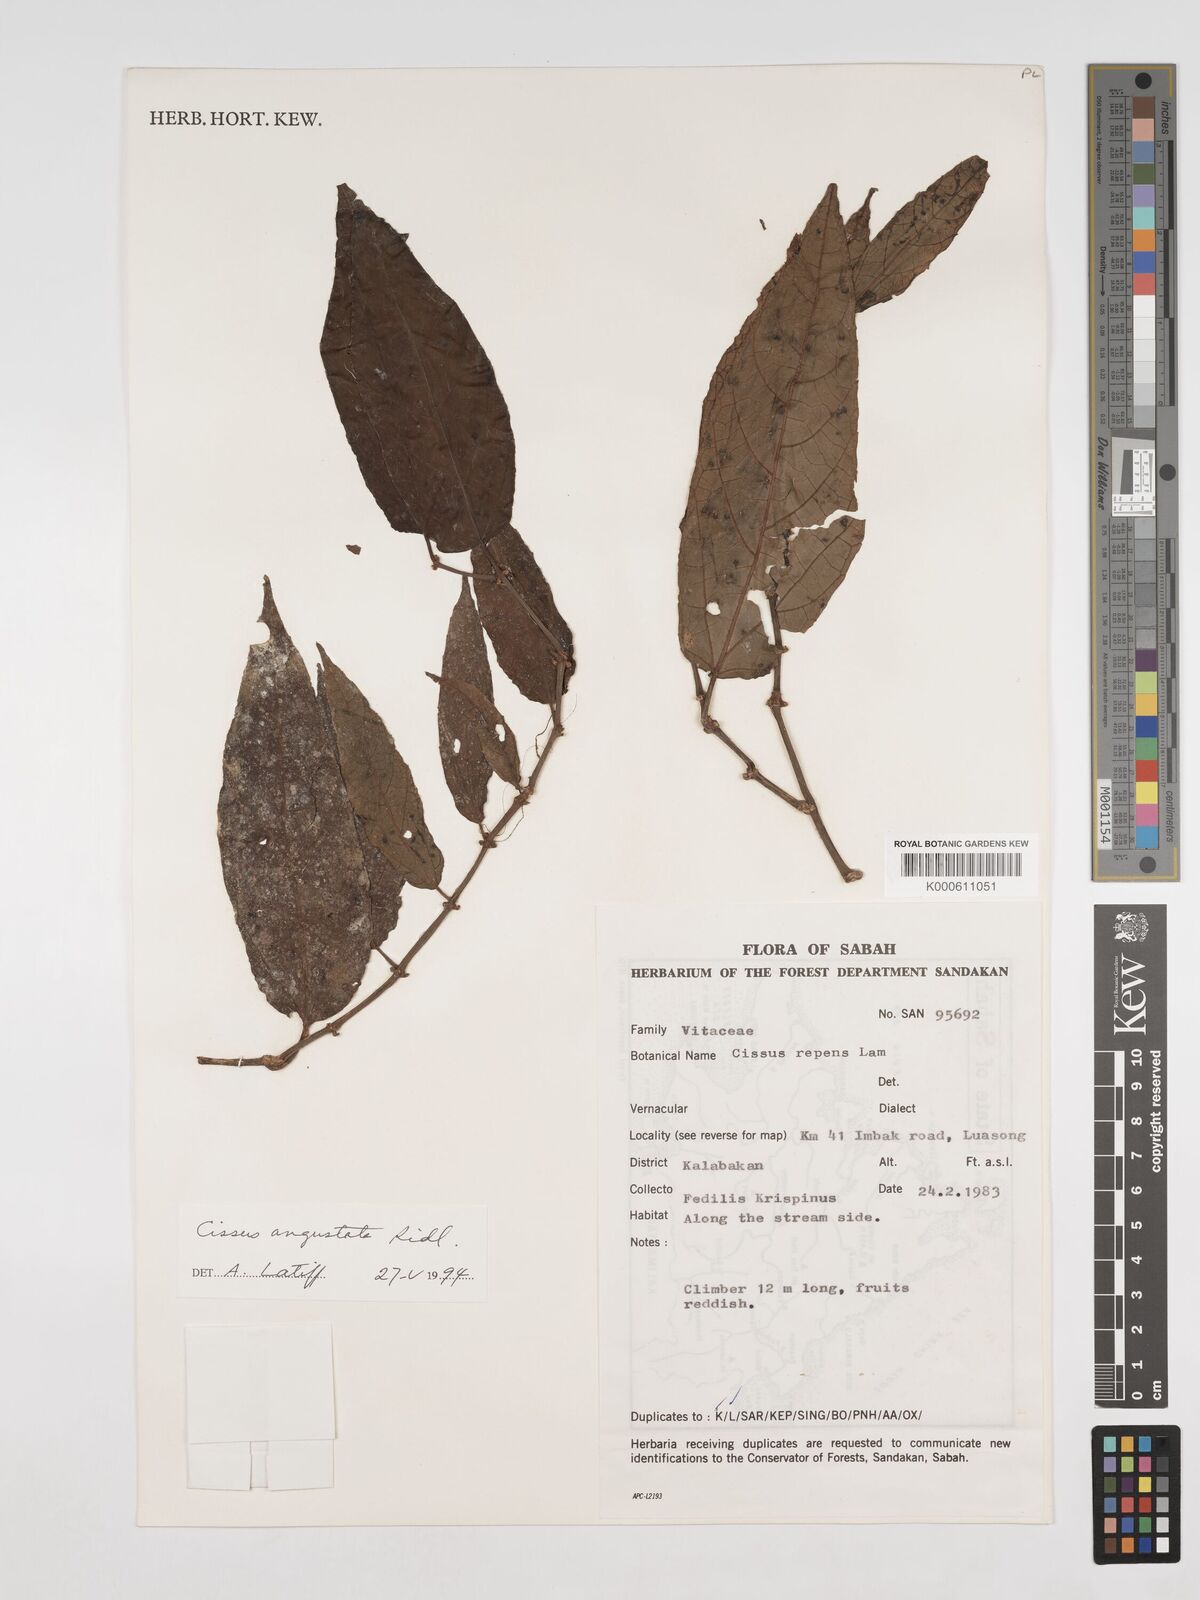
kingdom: Plantae
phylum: Tracheophyta
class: Magnoliopsida
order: Vitales
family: Vitaceae
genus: Cissus
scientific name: Cissus angustata
